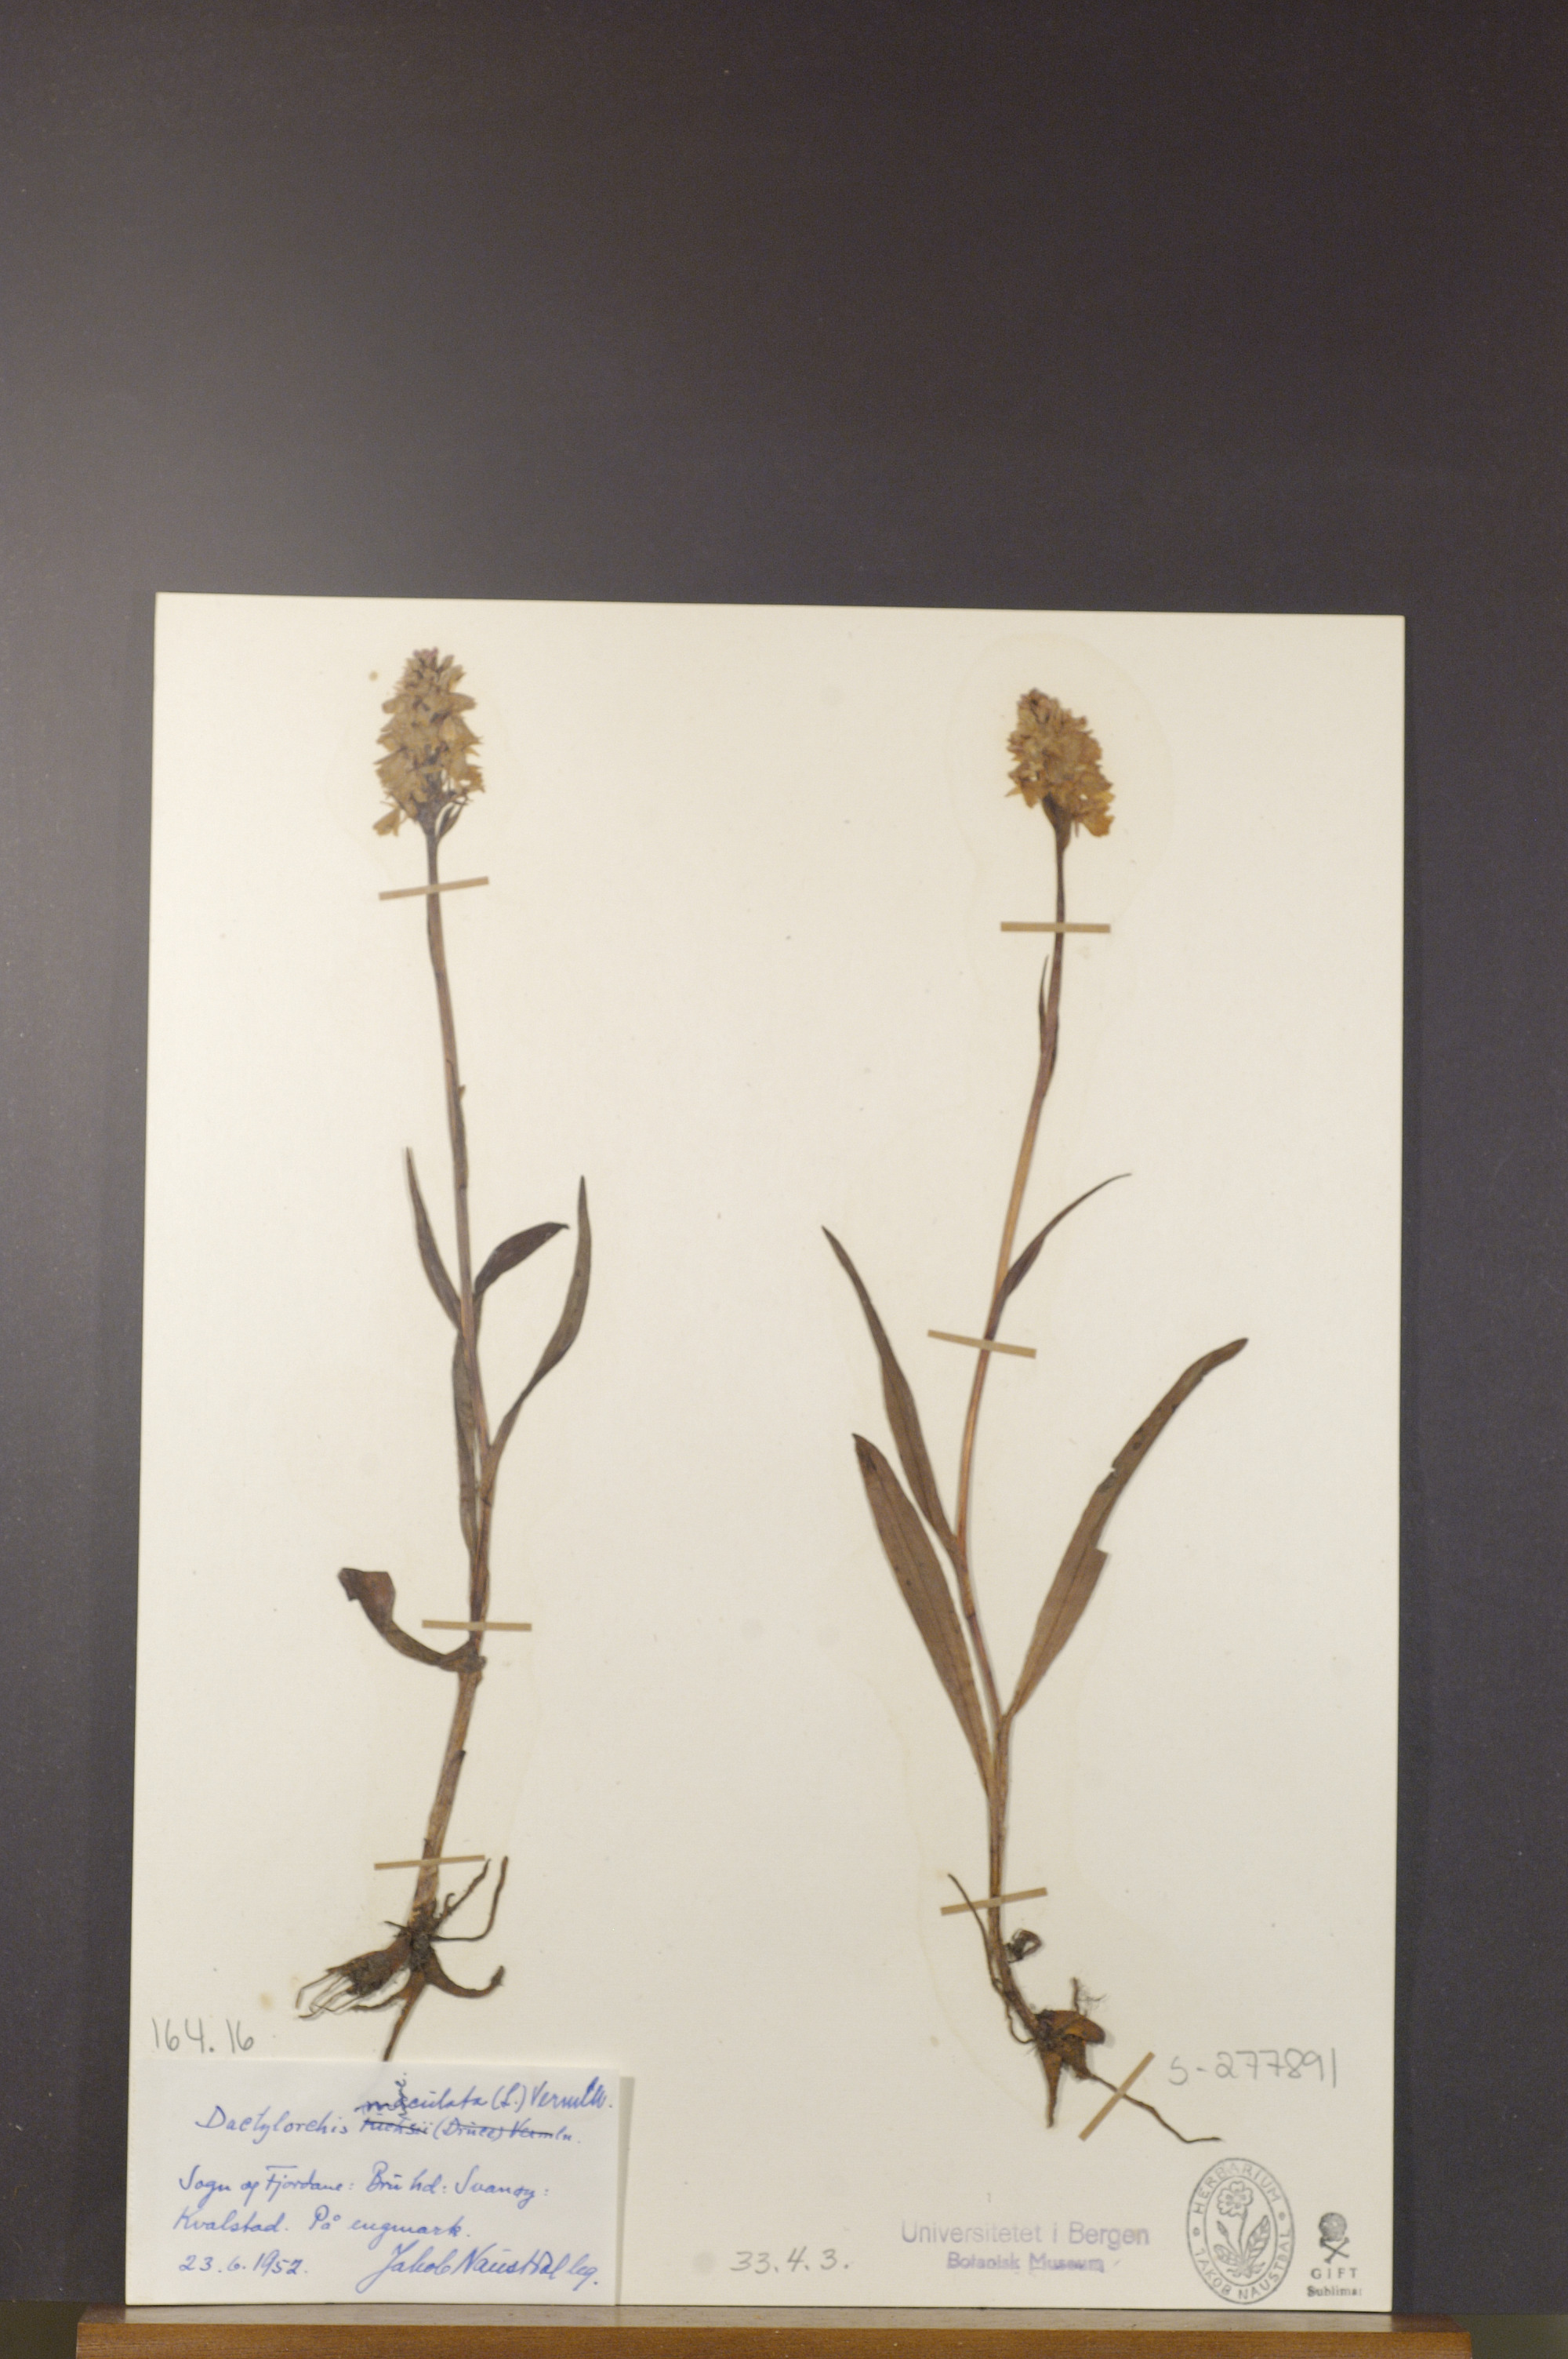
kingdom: Plantae
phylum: Tracheophyta
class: Liliopsida
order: Asparagales
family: Orchidaceae
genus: Dactylorhiza
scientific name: Dactylorhiza maculata
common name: Heath spotted-orchid
